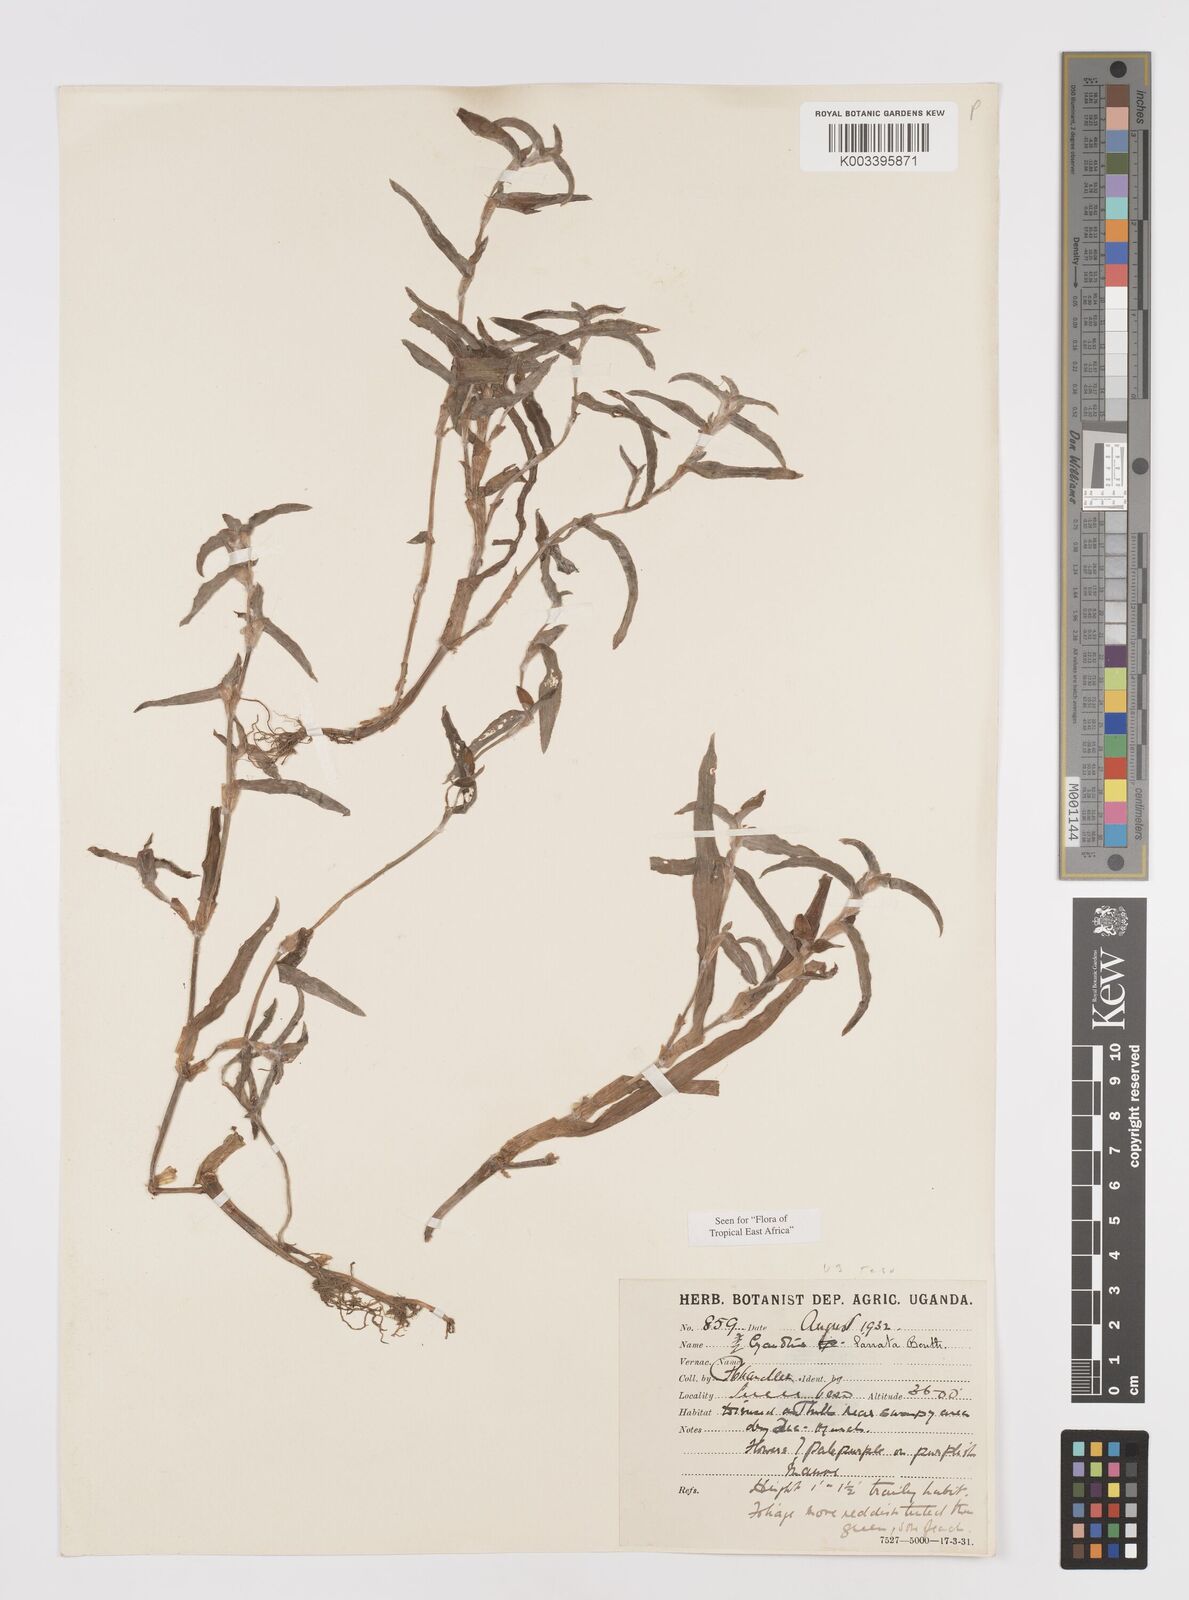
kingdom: Plantae
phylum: Tracheophyta
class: Liliopsida
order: Commelinales
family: Commelinaceae
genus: Cyanotis
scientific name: Cyanotis lanata
